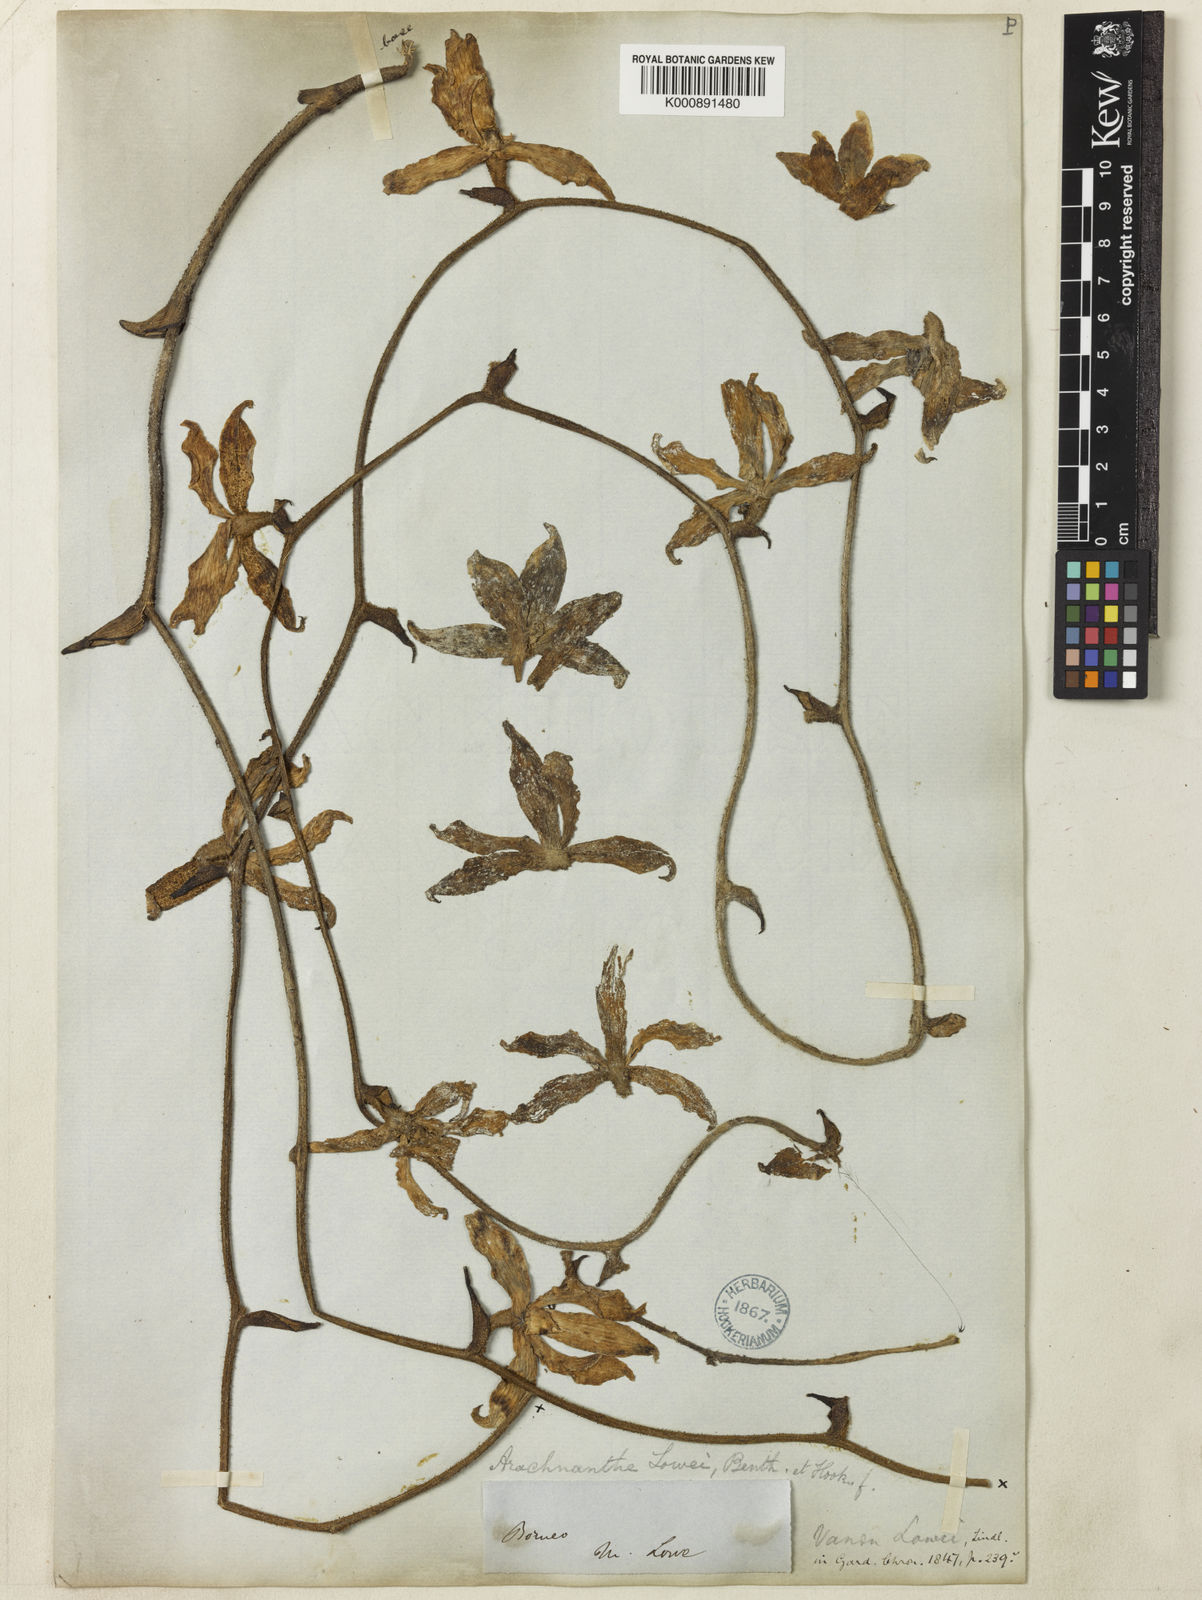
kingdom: Plantae
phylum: Tracheophyta
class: Liliopsida
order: Asparagales
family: Orchidaceae
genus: Dimorphorchis
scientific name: Dimorphorchis lowii
